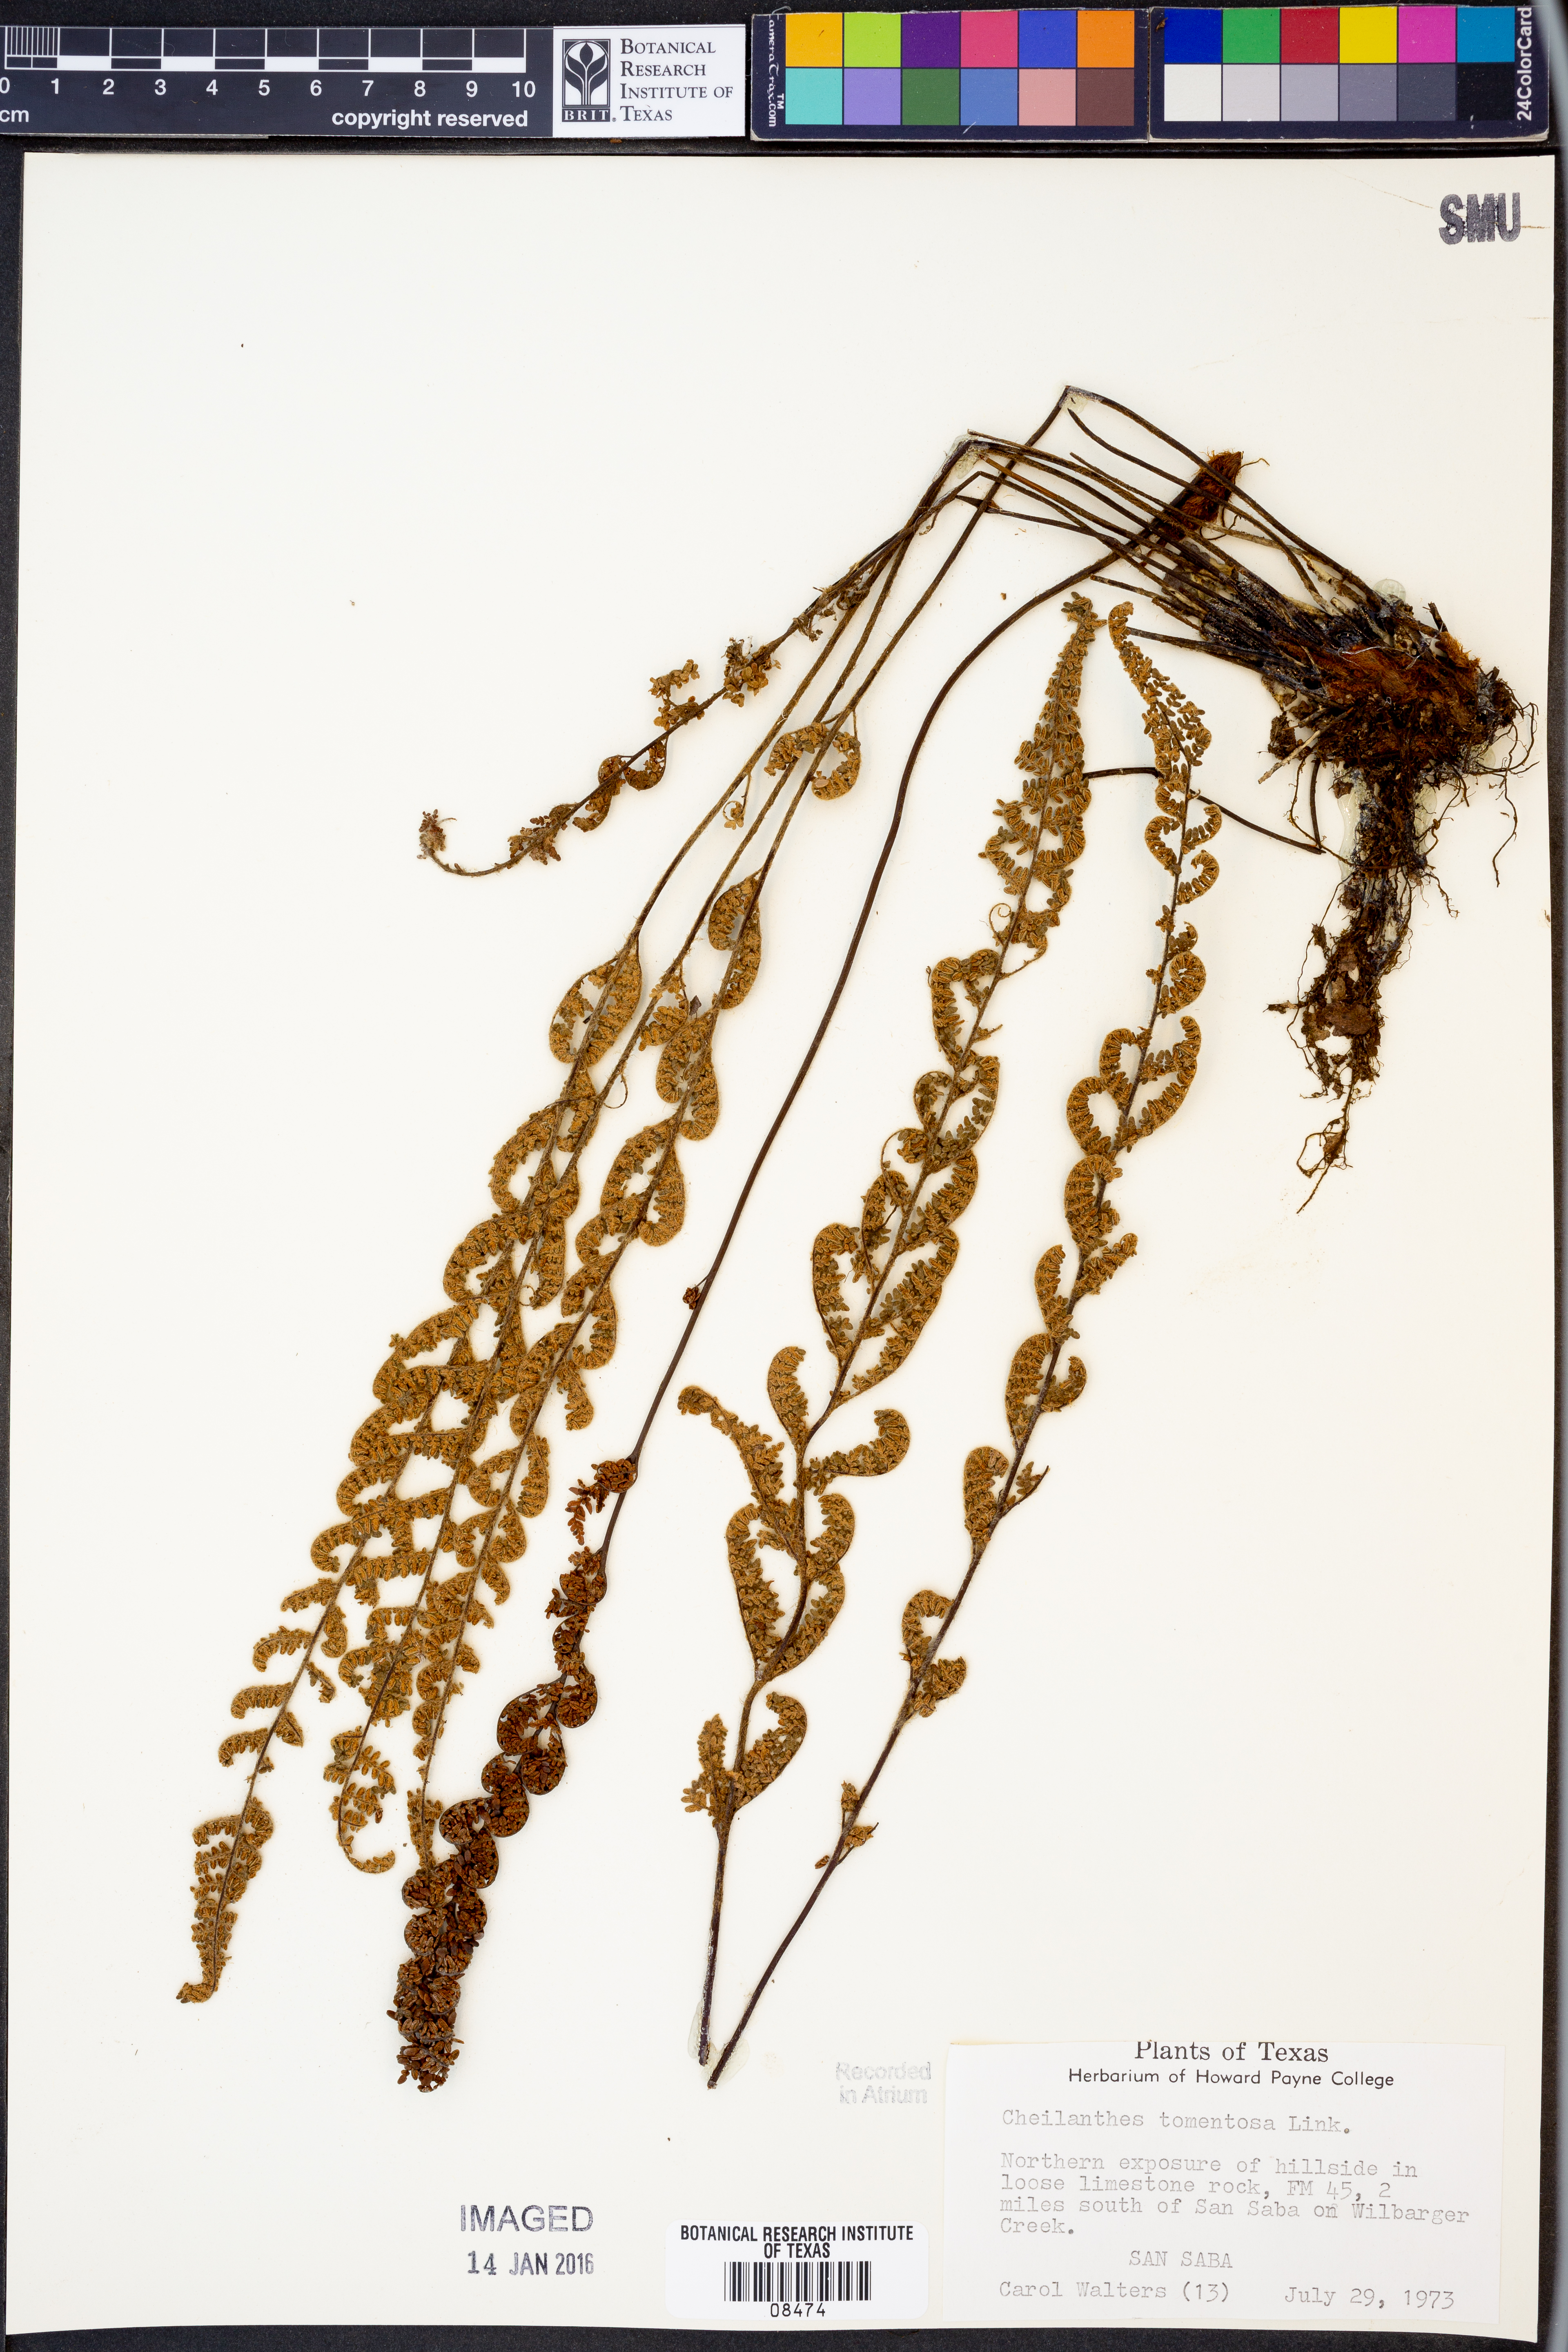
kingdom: Plantae
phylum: Tracheophyta
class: Polypodiopsida
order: Polypodiales
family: Pteridaceae
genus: Myriopteris
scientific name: Myriopteris tomentosa
